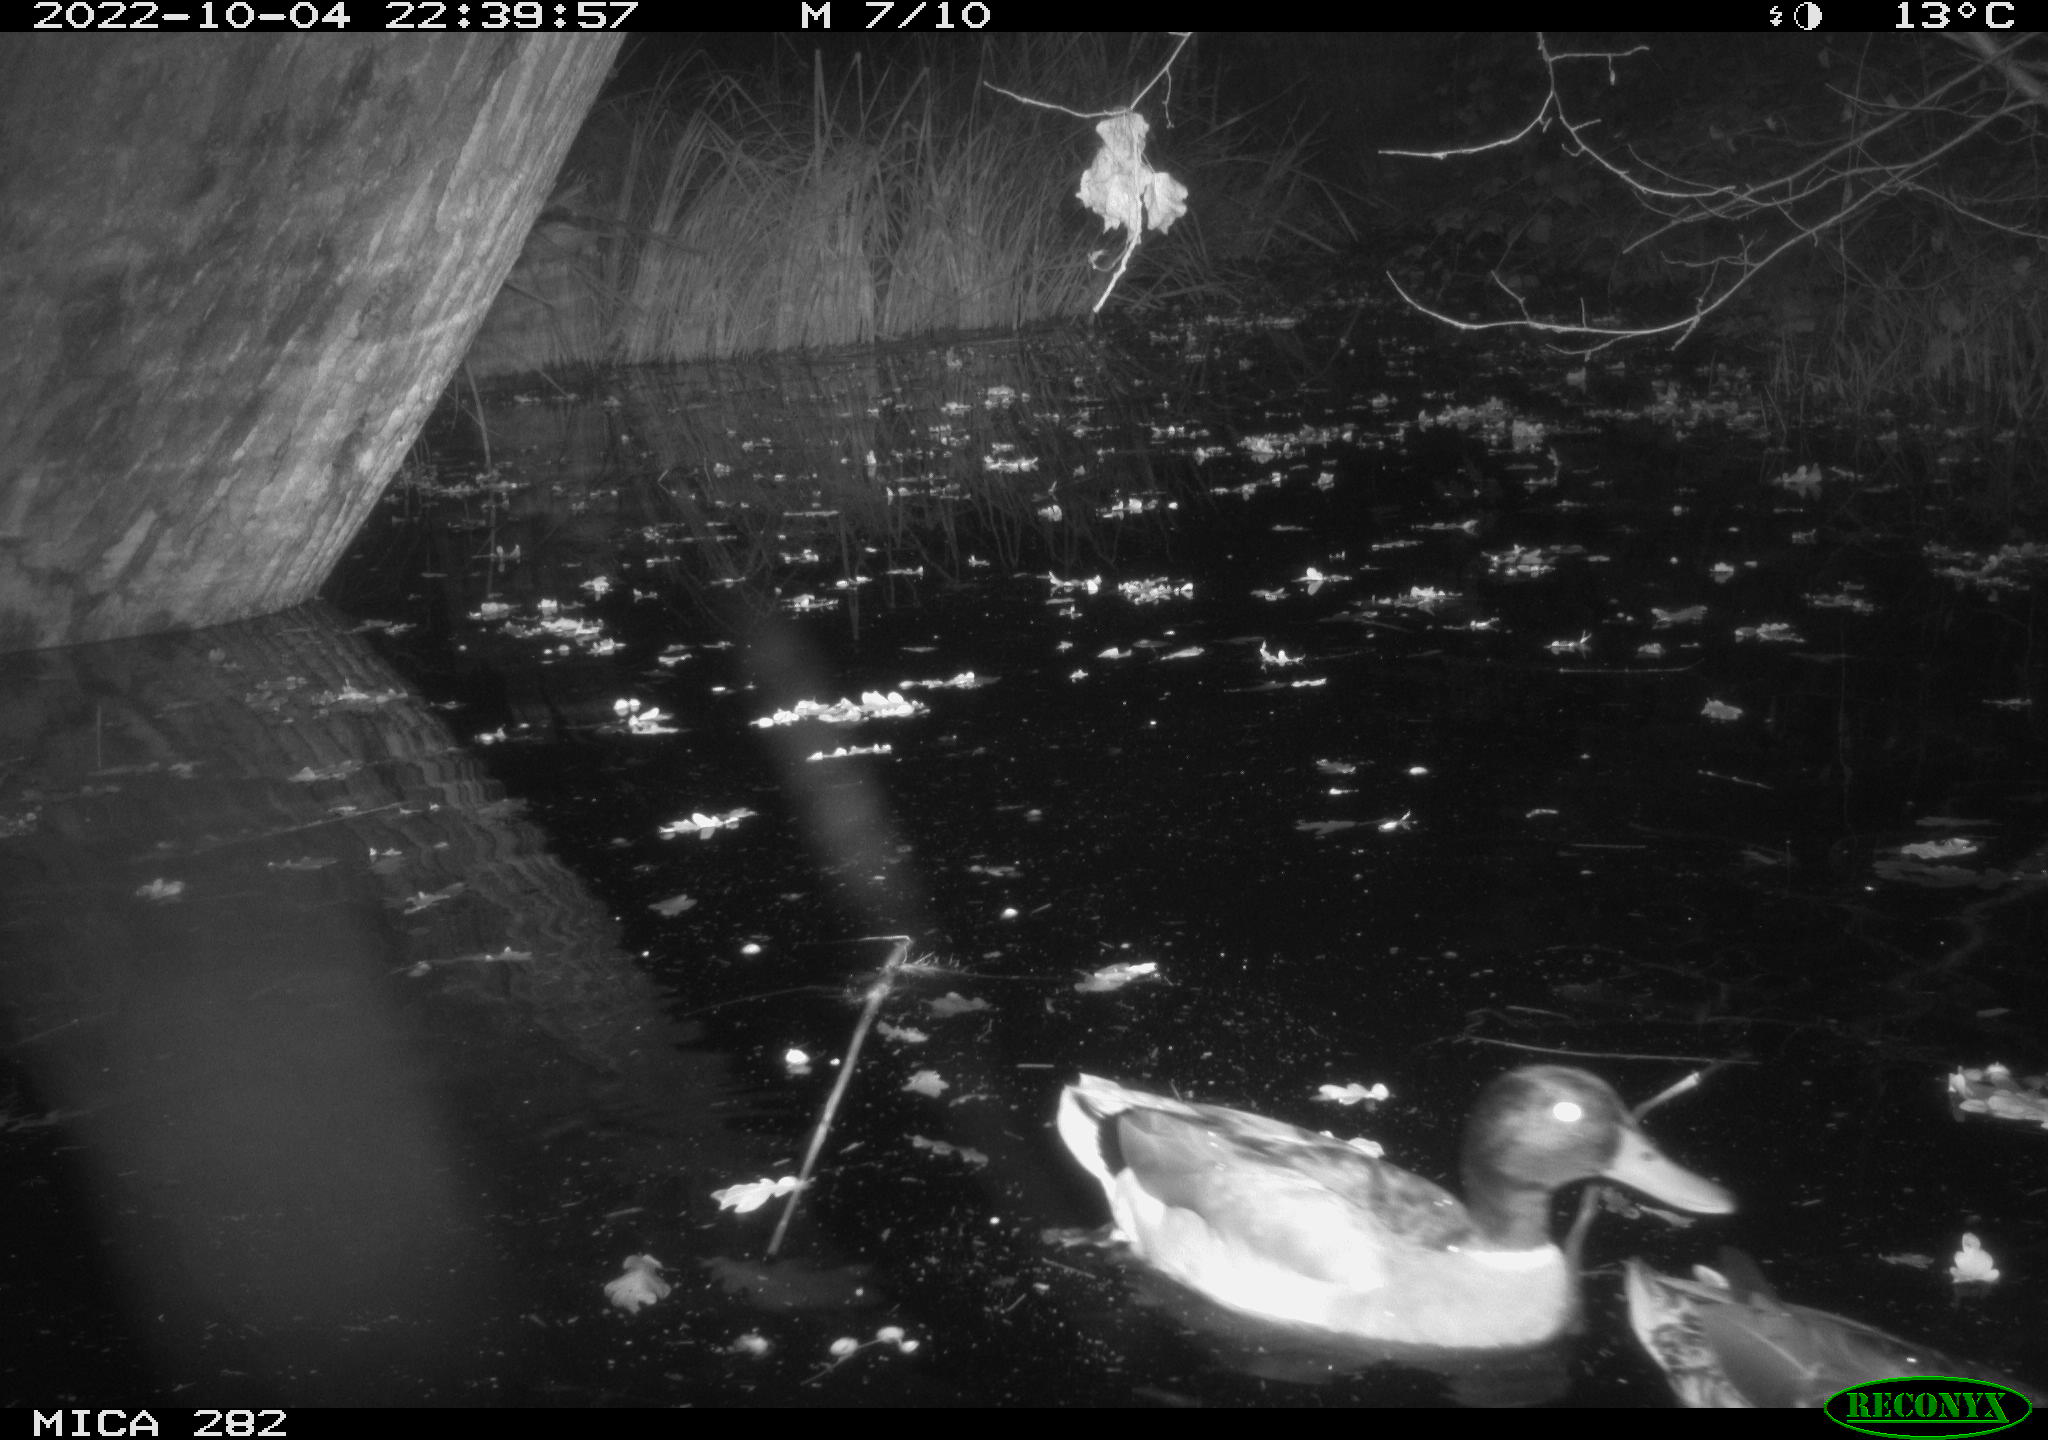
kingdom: Animalia
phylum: Chordata
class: Aves
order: Anseriformes
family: Anatidae
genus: Anas
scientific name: Anas
